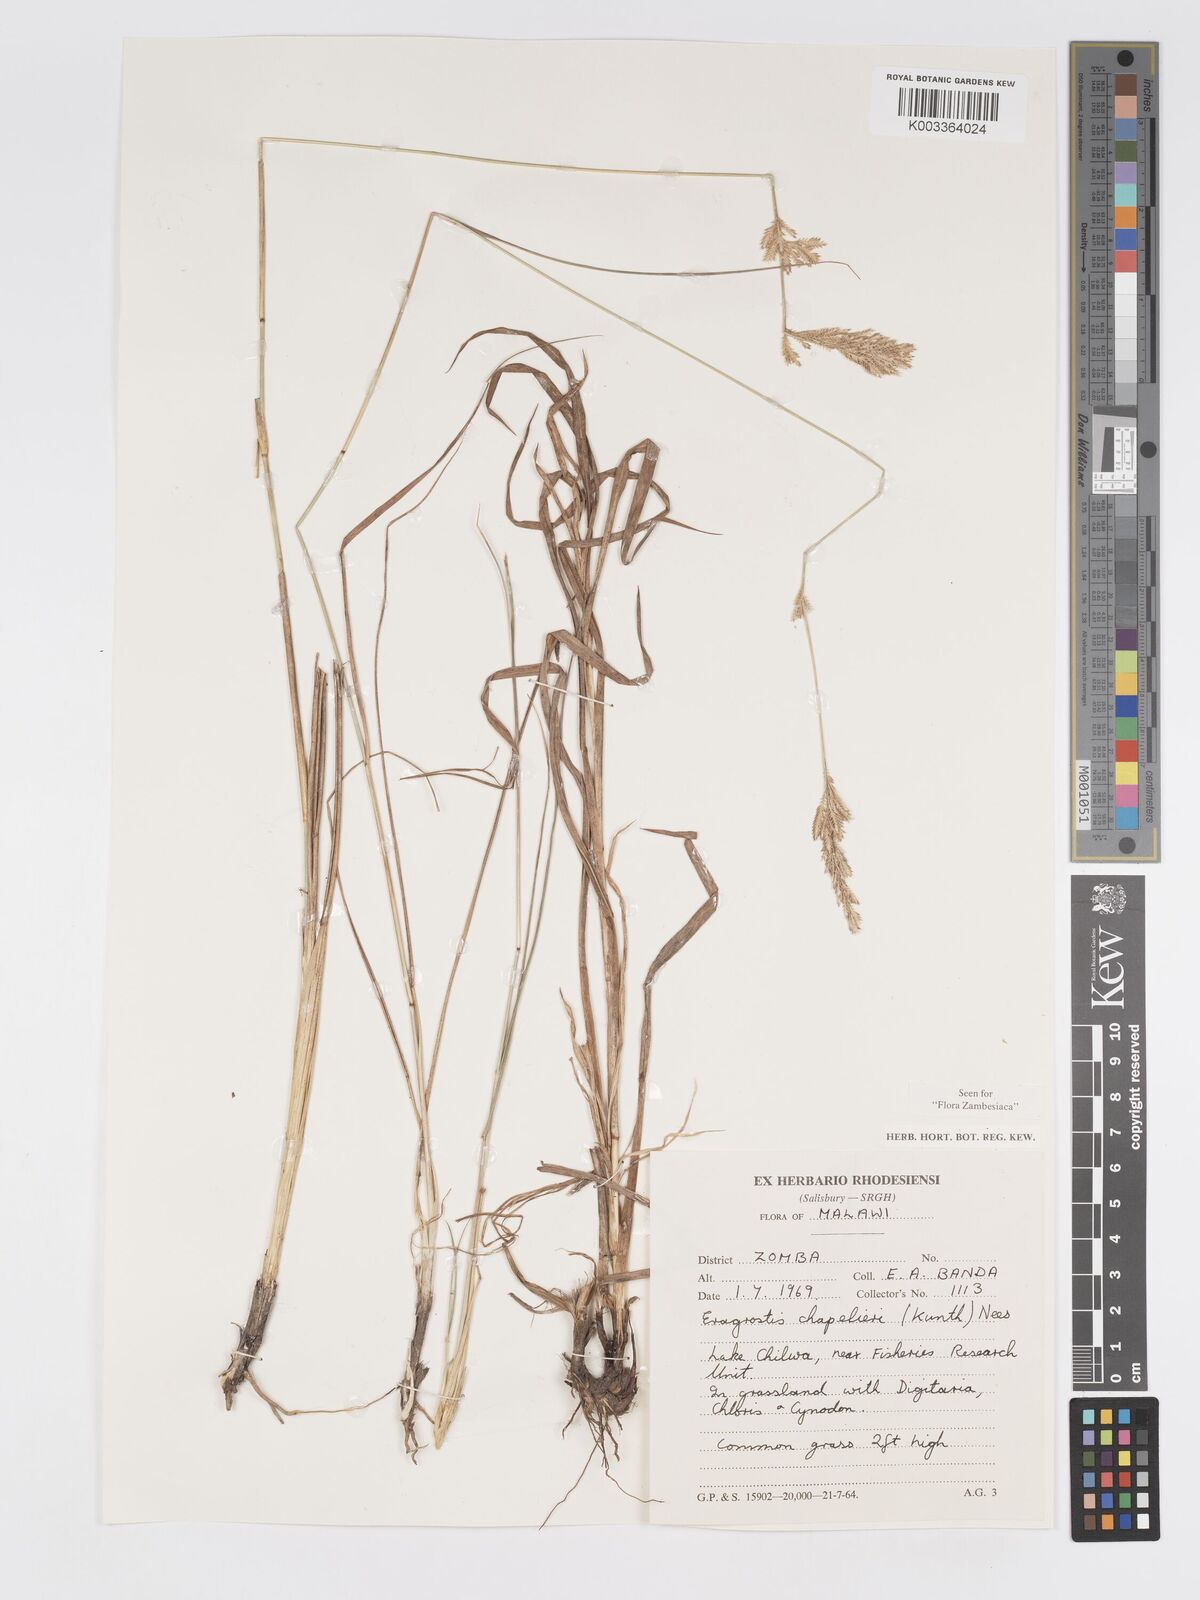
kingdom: Plantae
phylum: Tracheophyta
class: Liliopsida
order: Poales
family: Poaceae
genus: Eragrostis
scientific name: Eragrostis chapelieri
